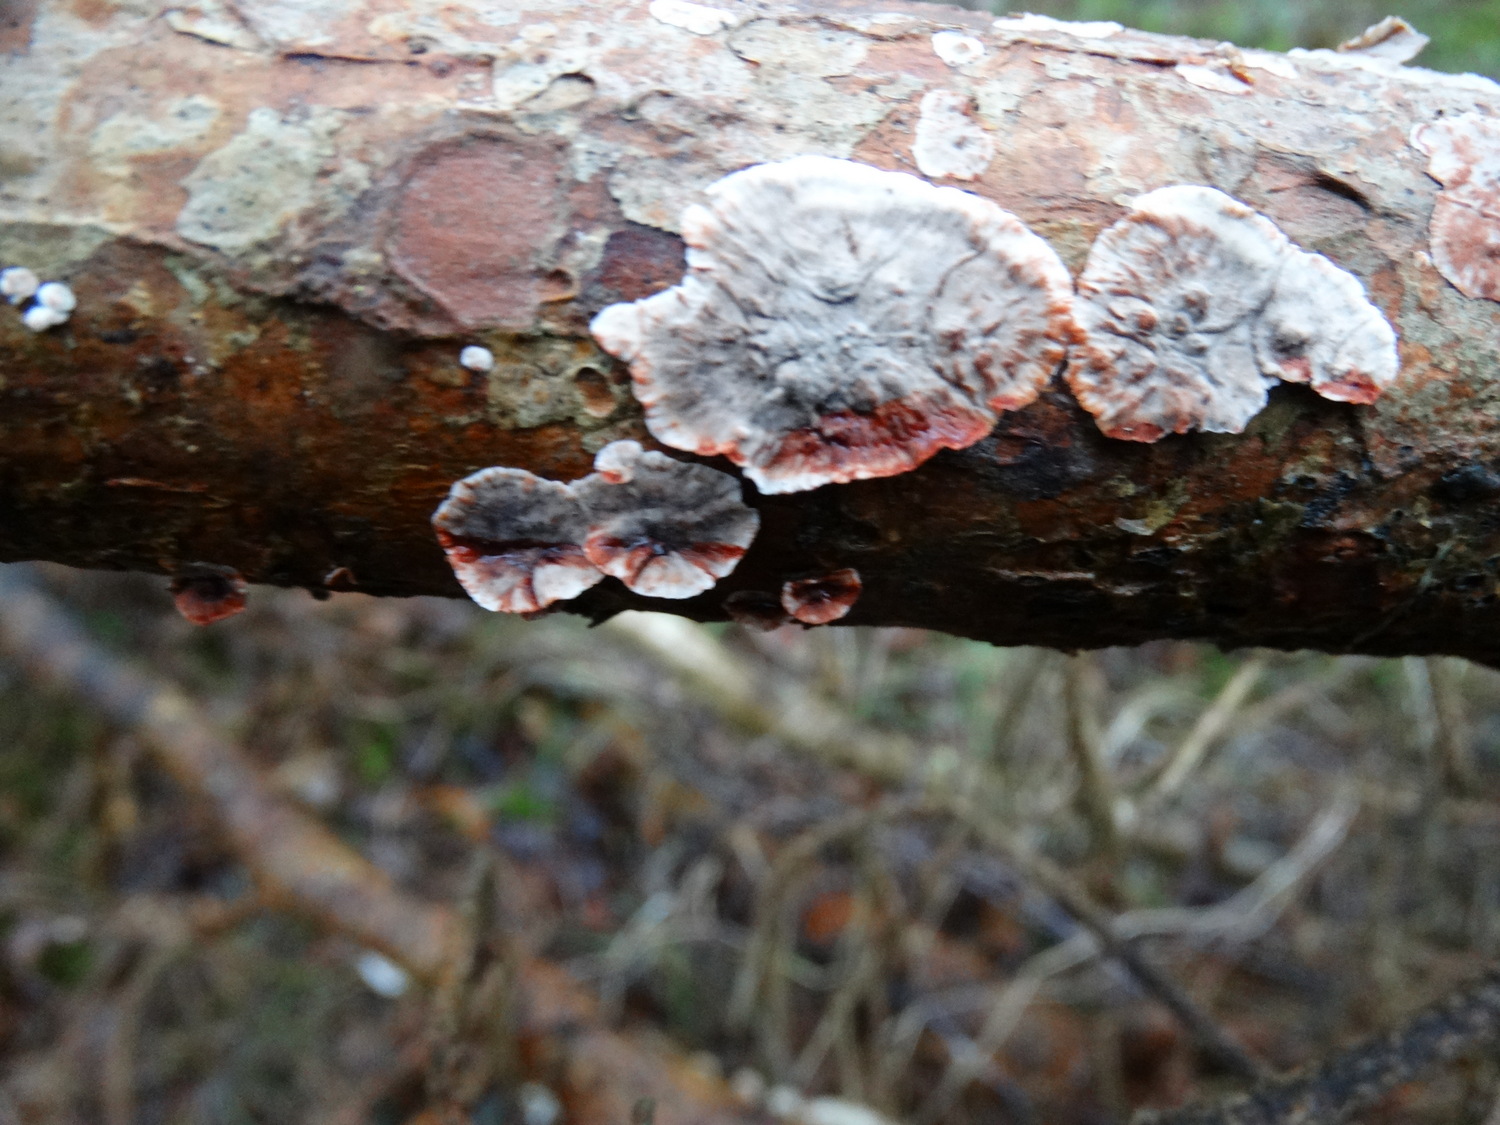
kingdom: Fungi
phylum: Basidiomycota
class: Agaricomycetes
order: Russulales
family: Stereaceae
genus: Stereum
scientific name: Stereum sanguinolentum
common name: blødende lædersvamp
